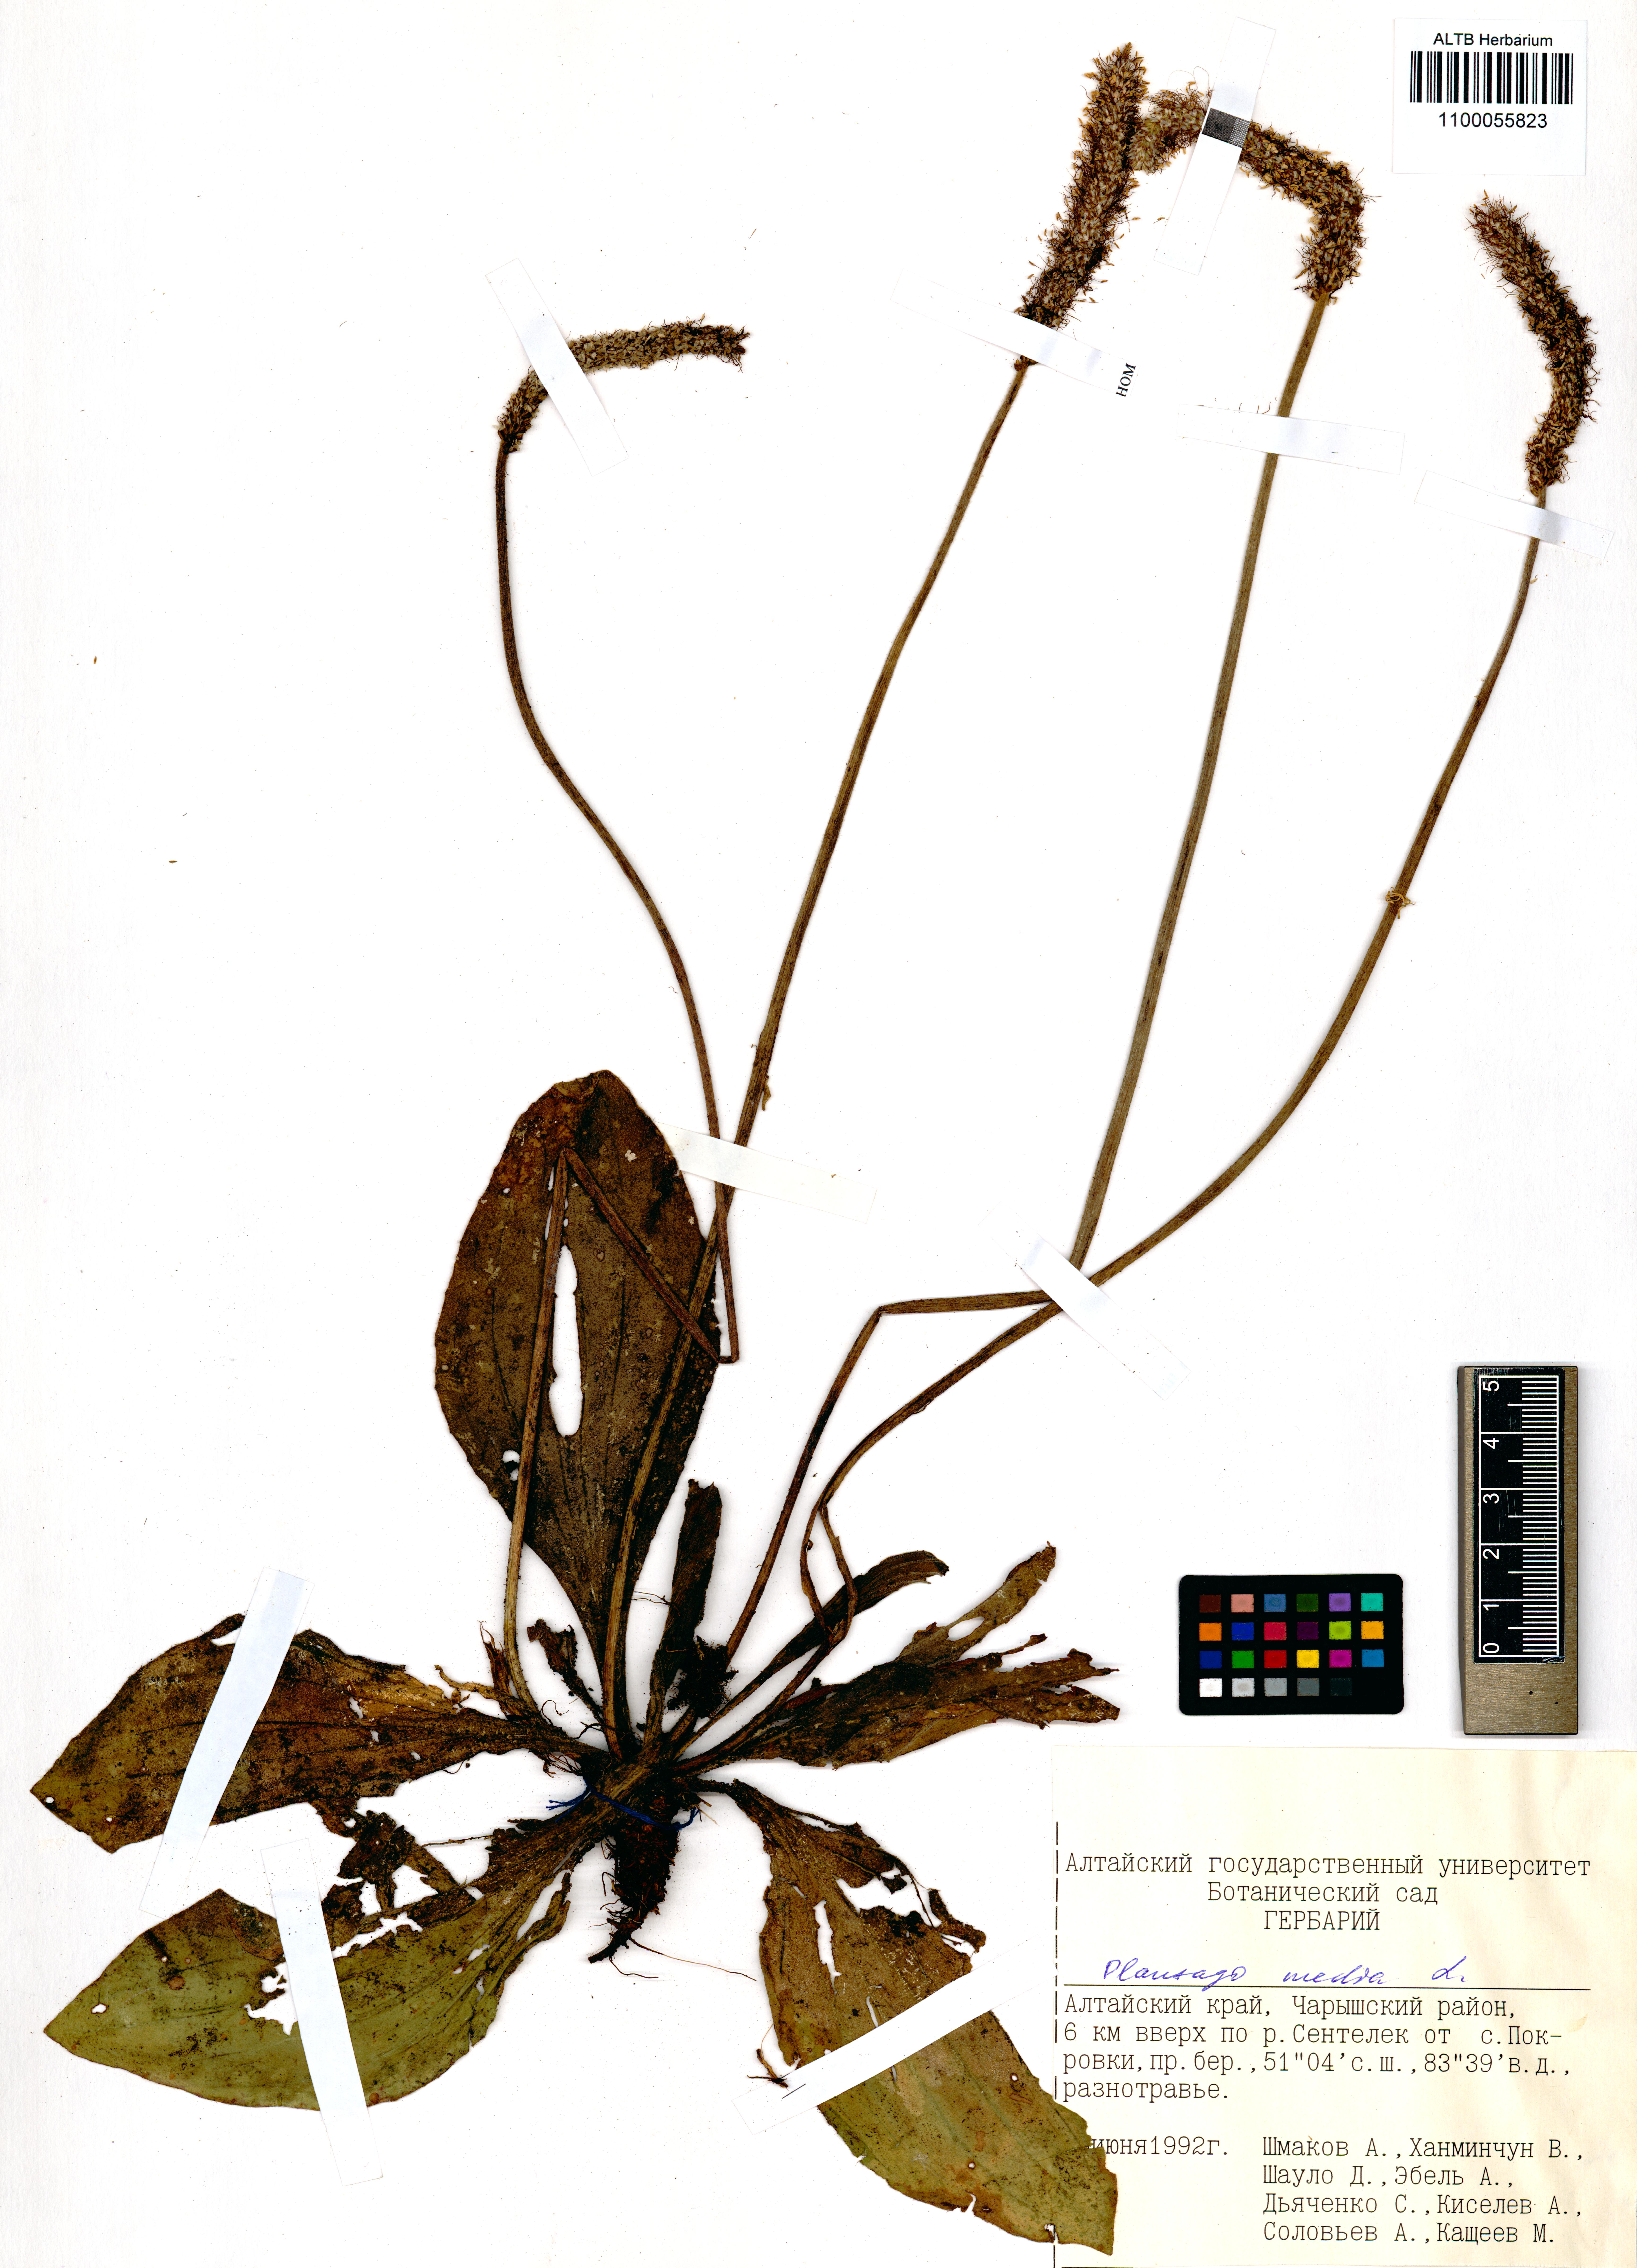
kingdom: Plantae
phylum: Tracheophyta
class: Magnoliopsida
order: Lamiales
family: Plantaginaceae
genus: Plantago
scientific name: Plantago media
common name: Hoary plantain
